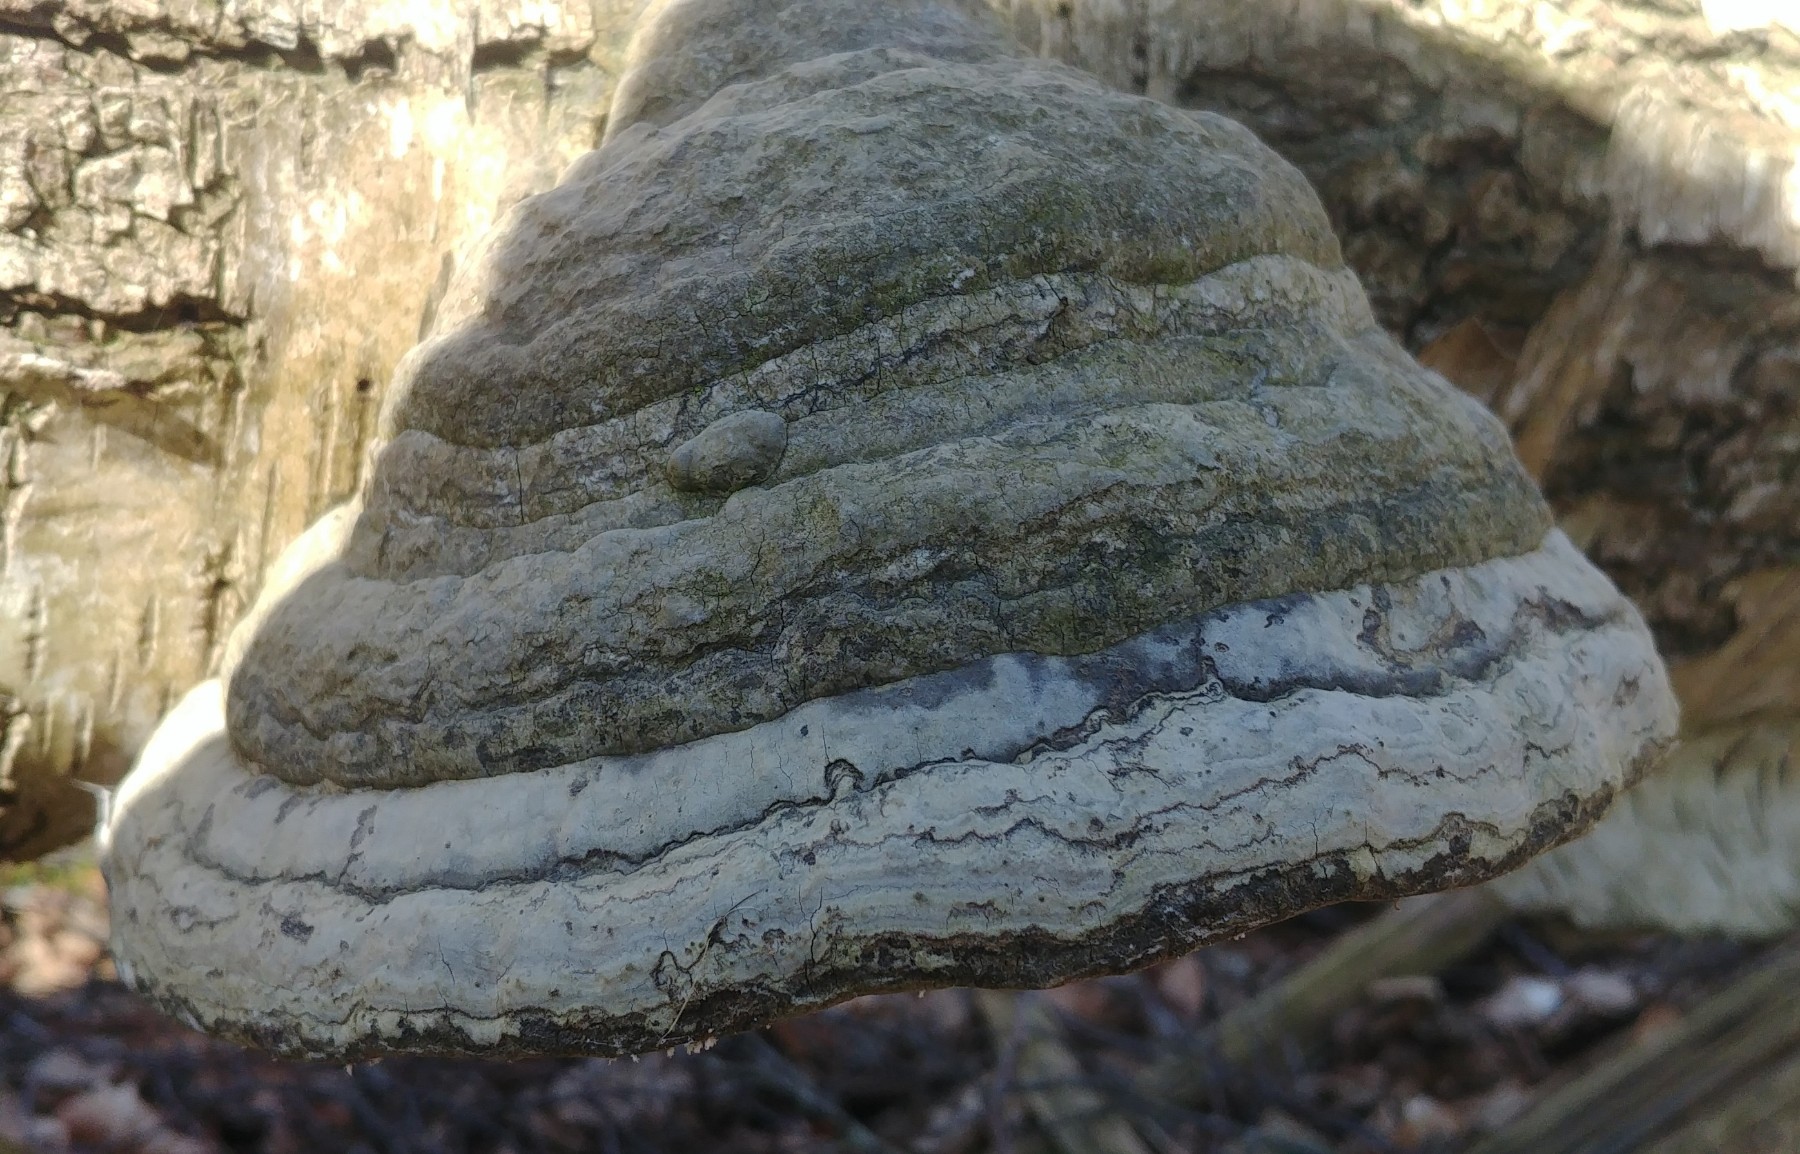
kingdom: Fungi
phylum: Basidiomycota
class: Agaricomycetes
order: Polyporales
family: Polyporaceae
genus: Fomes
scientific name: Fomes fomentarius
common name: tøndersvamp
